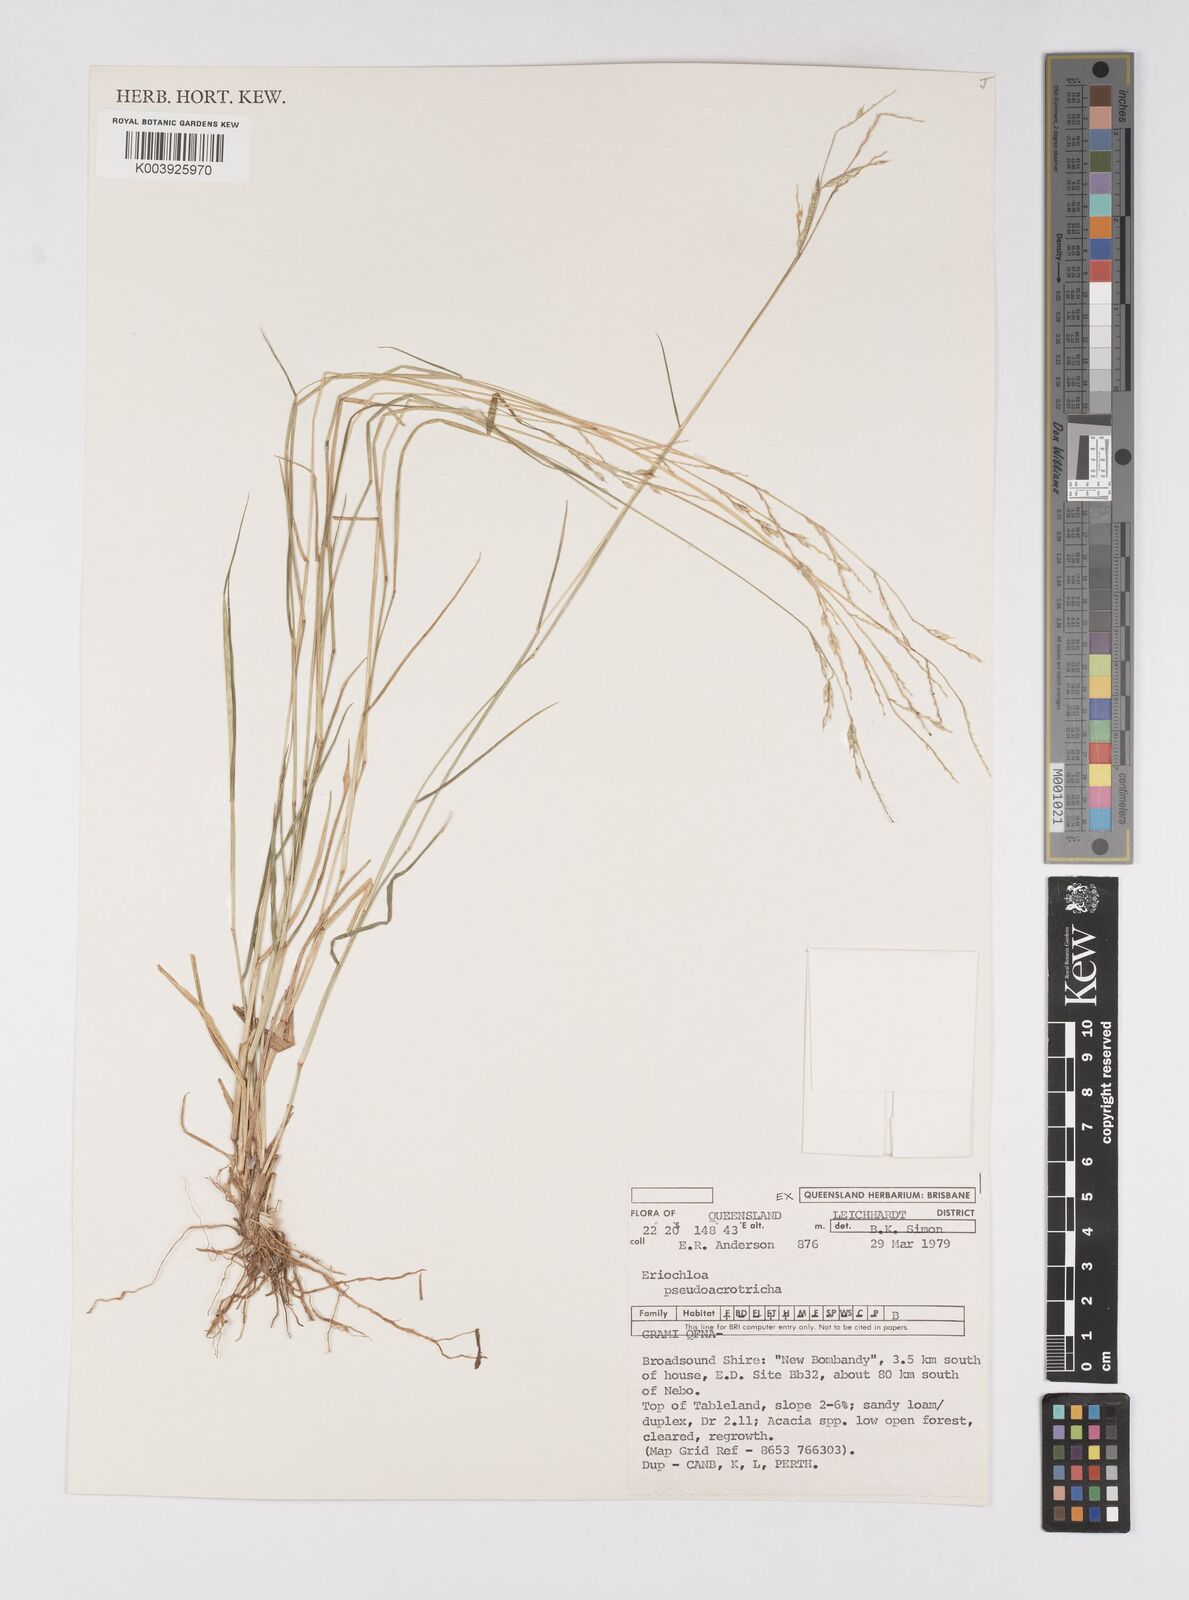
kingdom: Plantae
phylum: Tracheophyta
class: Liliopsida
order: Poales
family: Poaceae
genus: Eriochloa
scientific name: Eriochloa pseudoacrotricha
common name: Perennial cup-grass
